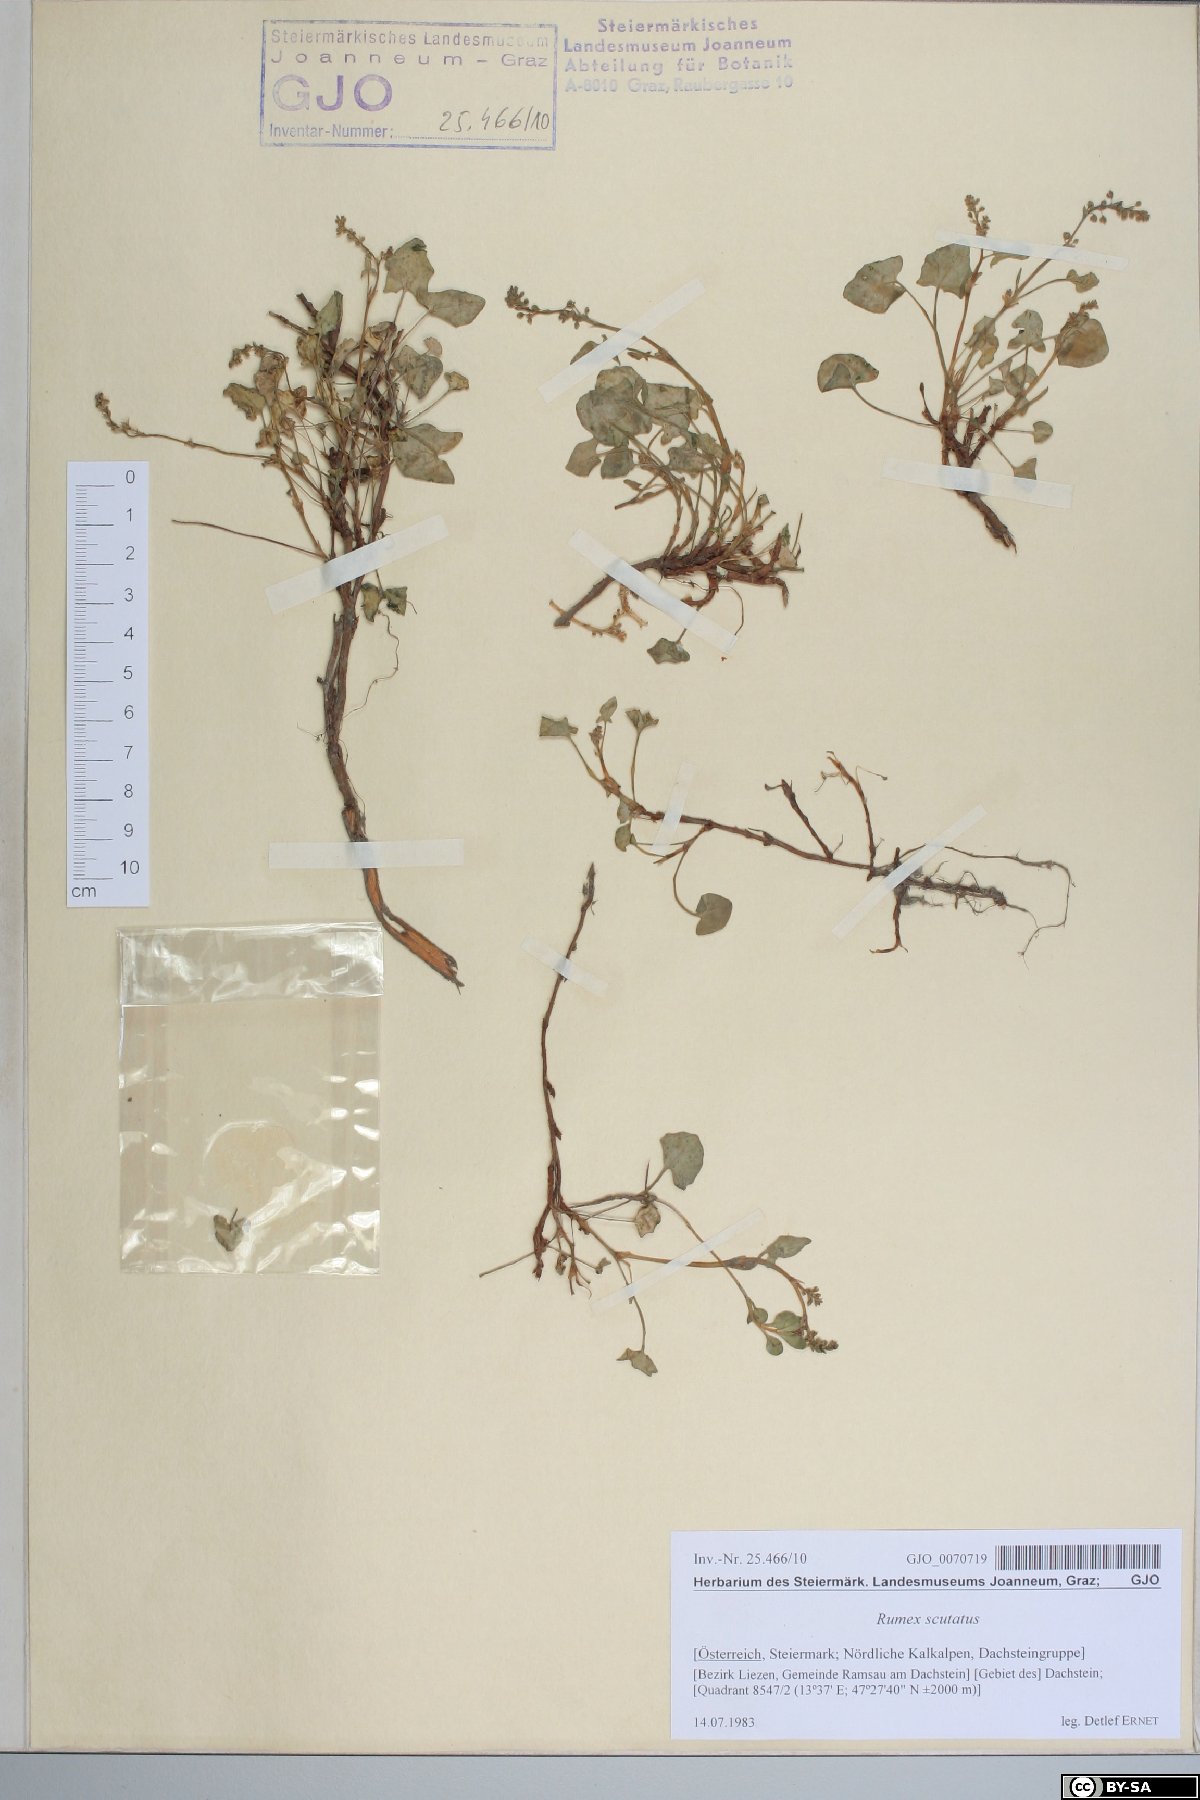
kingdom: Plantae
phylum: Tracheophyta
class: Magnoliopsida
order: Caryophyllales
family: Polygonaceae
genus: Rumex
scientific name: Rumex scutatus
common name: French sorrel
